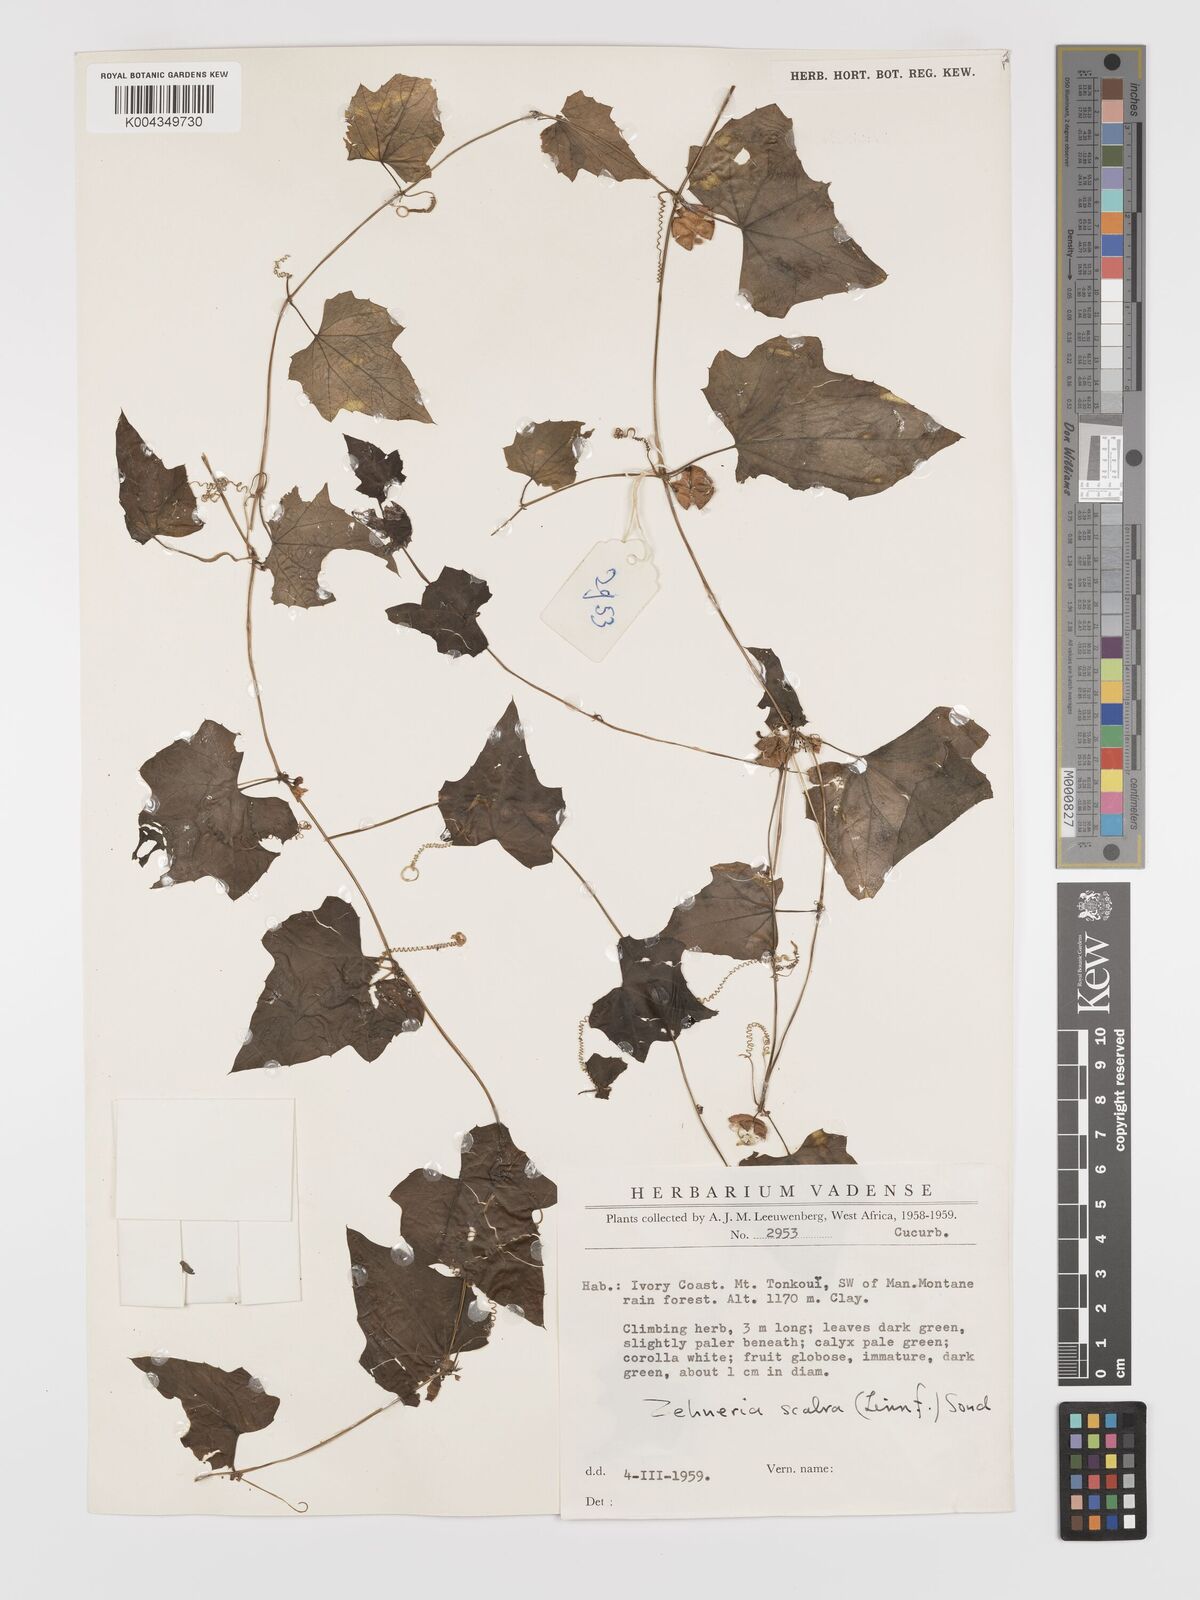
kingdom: Plantae
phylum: Tracheophyta
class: Magnoliopsida
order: Cucurbitales
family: Cucurbitaceae
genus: Zehneria
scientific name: Zehneria scabra
